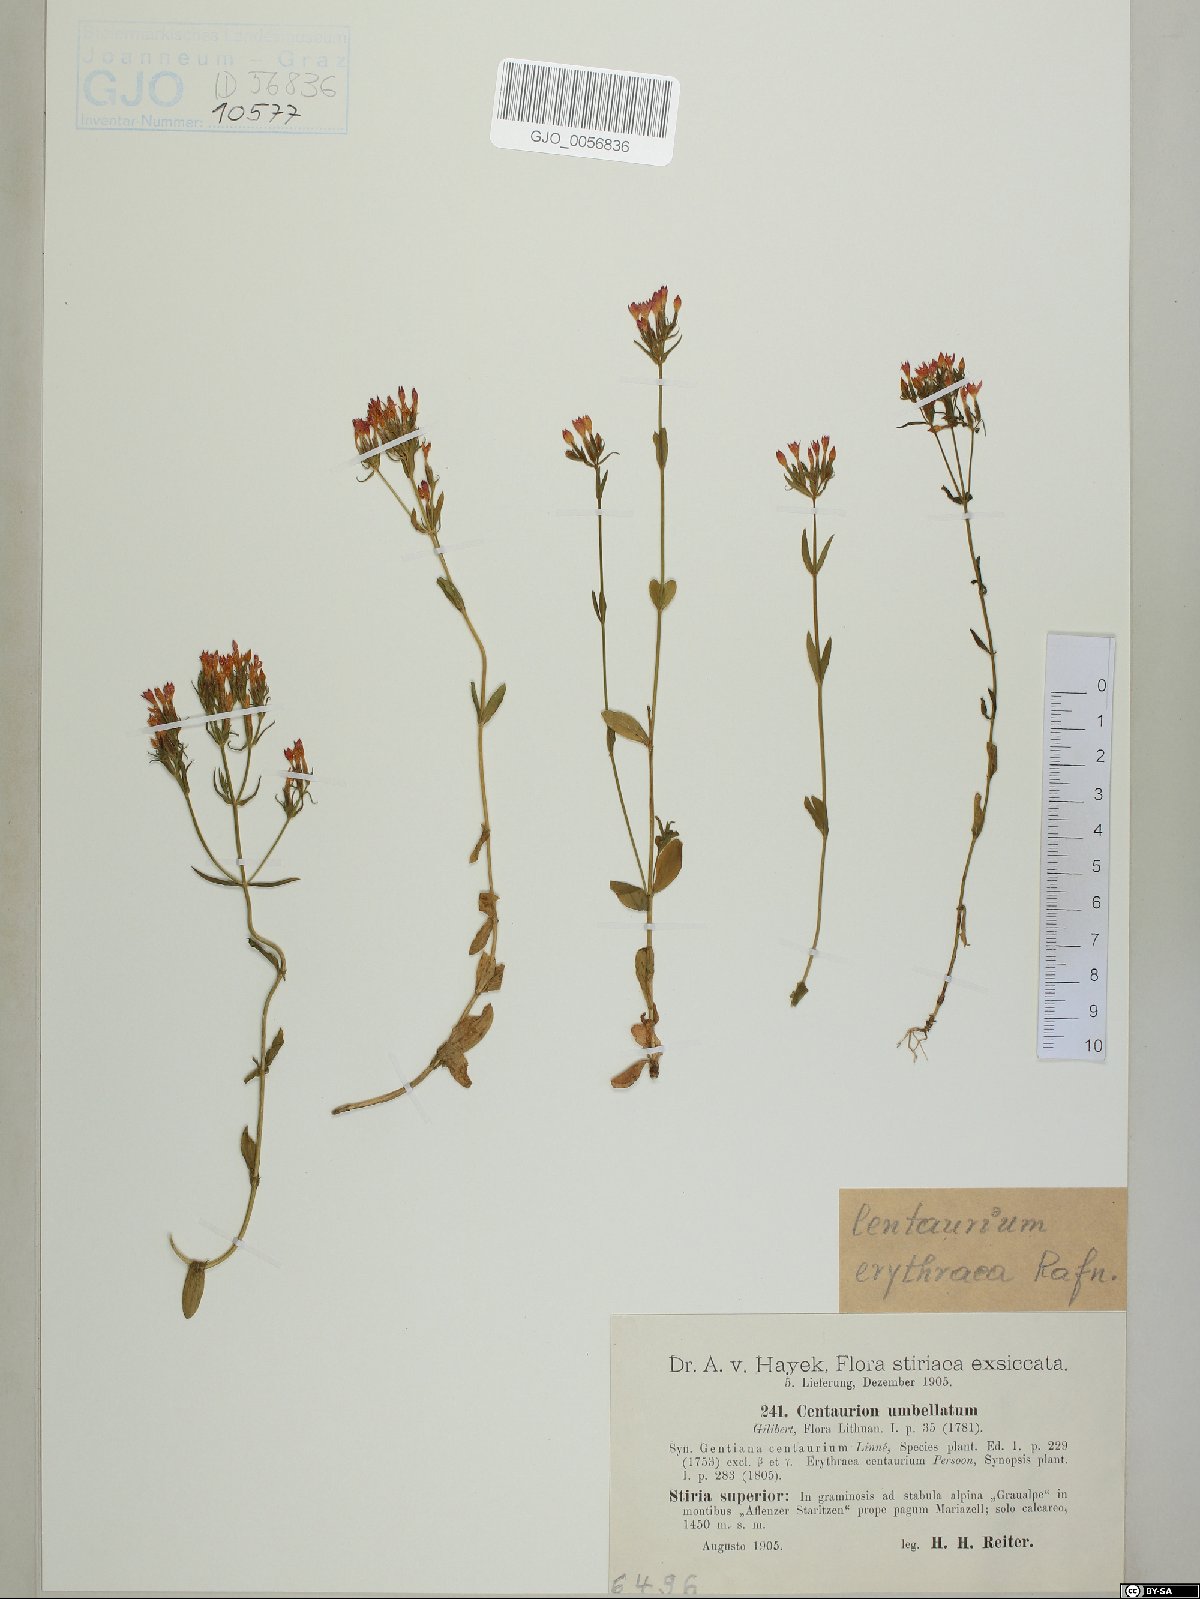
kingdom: Plantae
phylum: Tracheophyta
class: Magnoliopsida
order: Gentianales
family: Gentianaceae
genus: Centaurium
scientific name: Centaurium erythraea
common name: Common centaury
